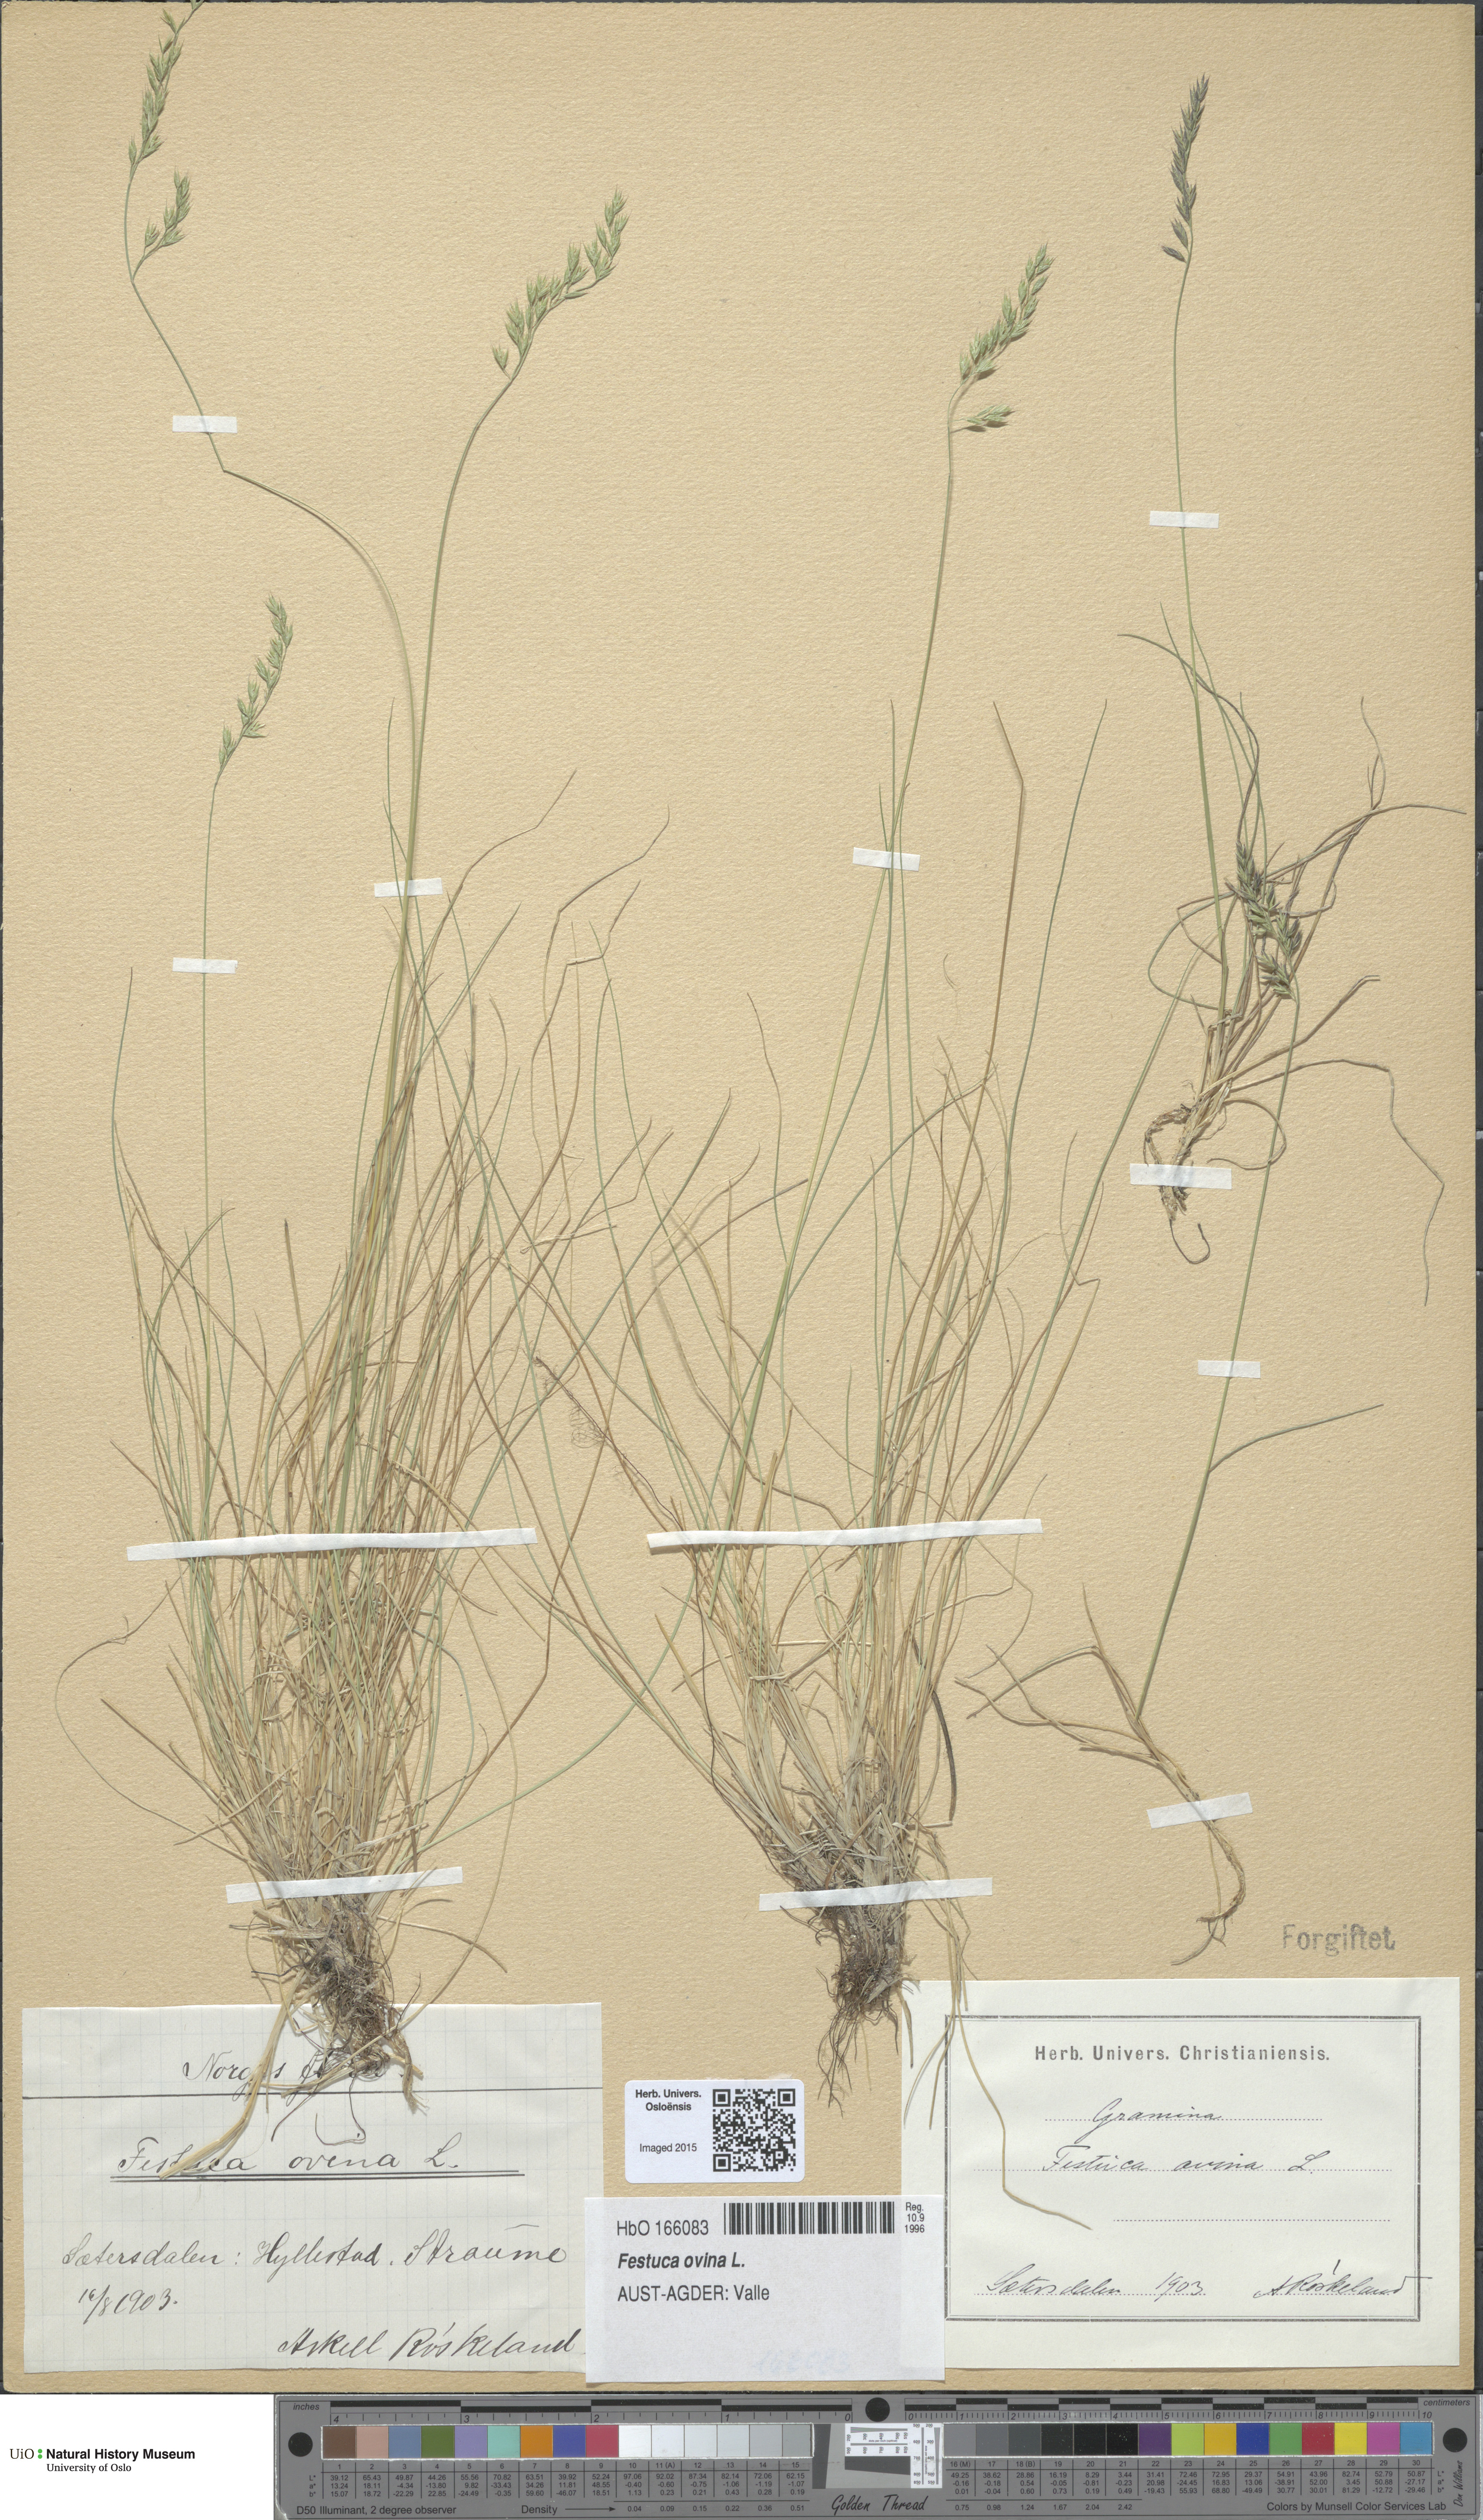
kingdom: Plantae
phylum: Tracheophyta
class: Liliopsida
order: Poales
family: Poaceae
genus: Festuca
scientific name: Festuca ovina
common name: Sheep fescue
